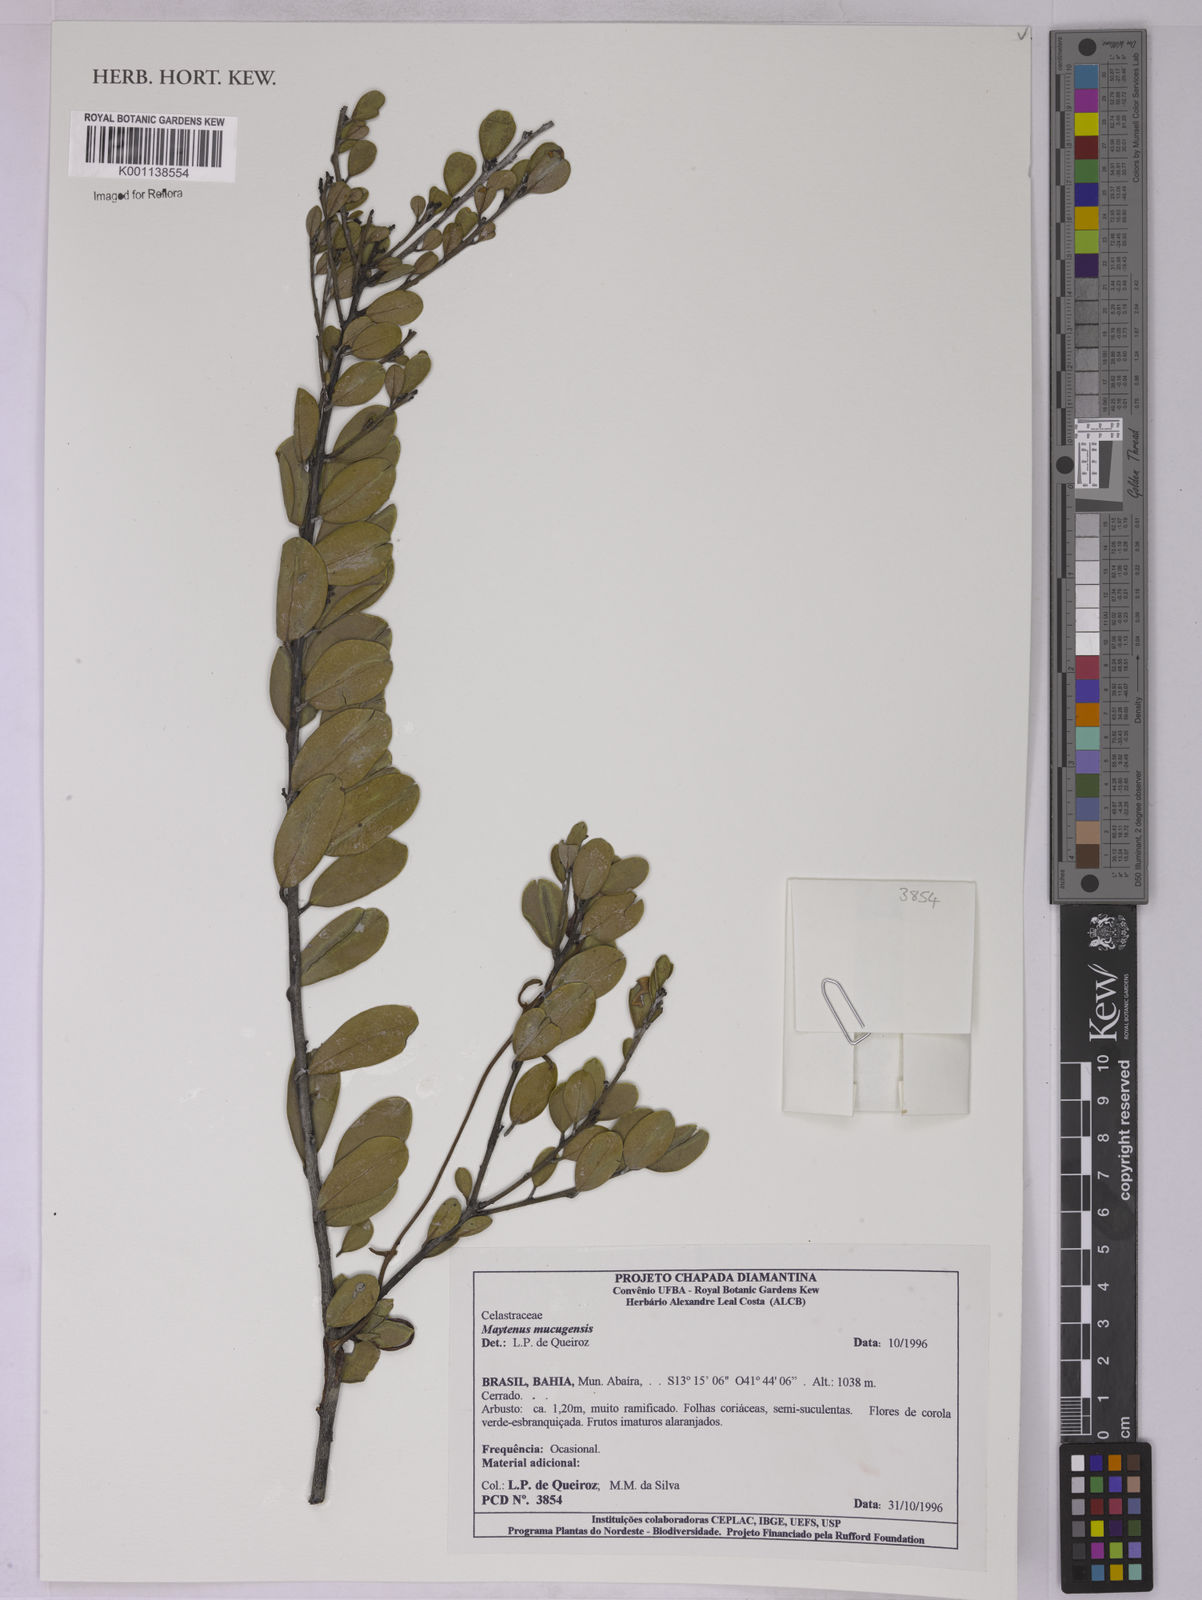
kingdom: Plantae
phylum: Tracheophyta
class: Magnoliopsida
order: Celastrales
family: Celastraceae
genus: Monteverdia
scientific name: Monteverdia mucugensis
